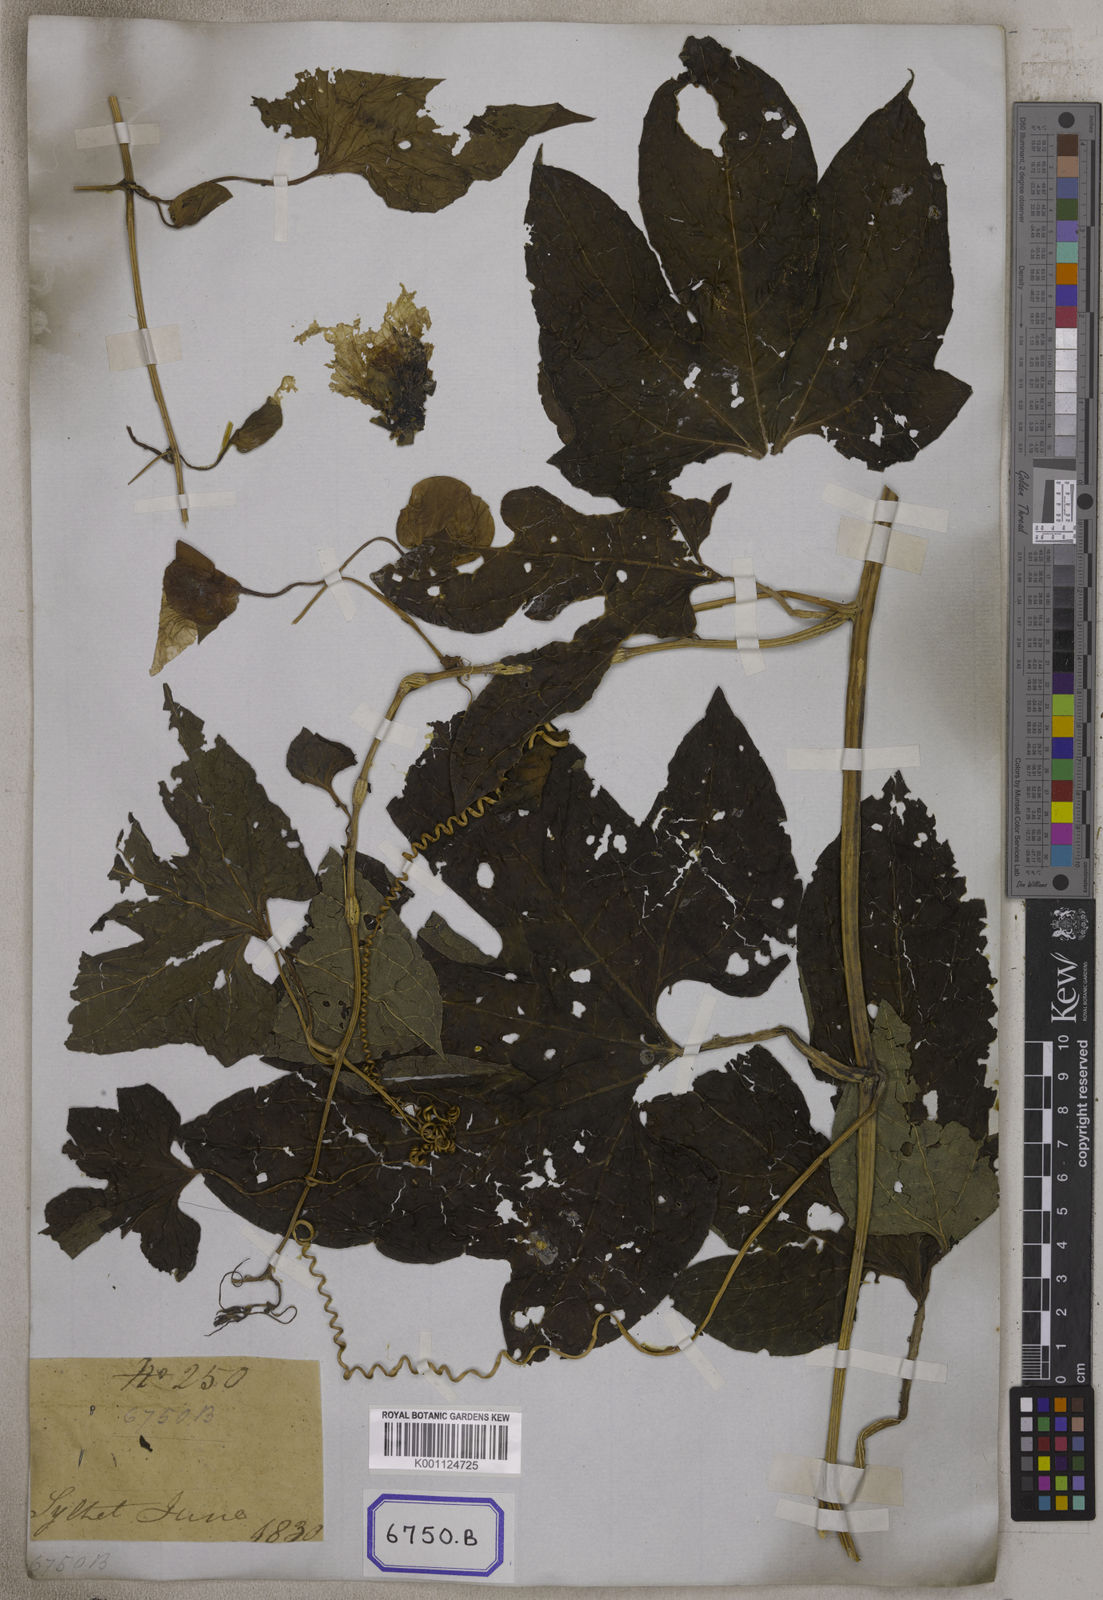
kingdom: Plantae
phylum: Tracheophyta
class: Magnoliopsida
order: Cucurbitales
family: Cucurbitaceae
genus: Momordica
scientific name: Momordica
